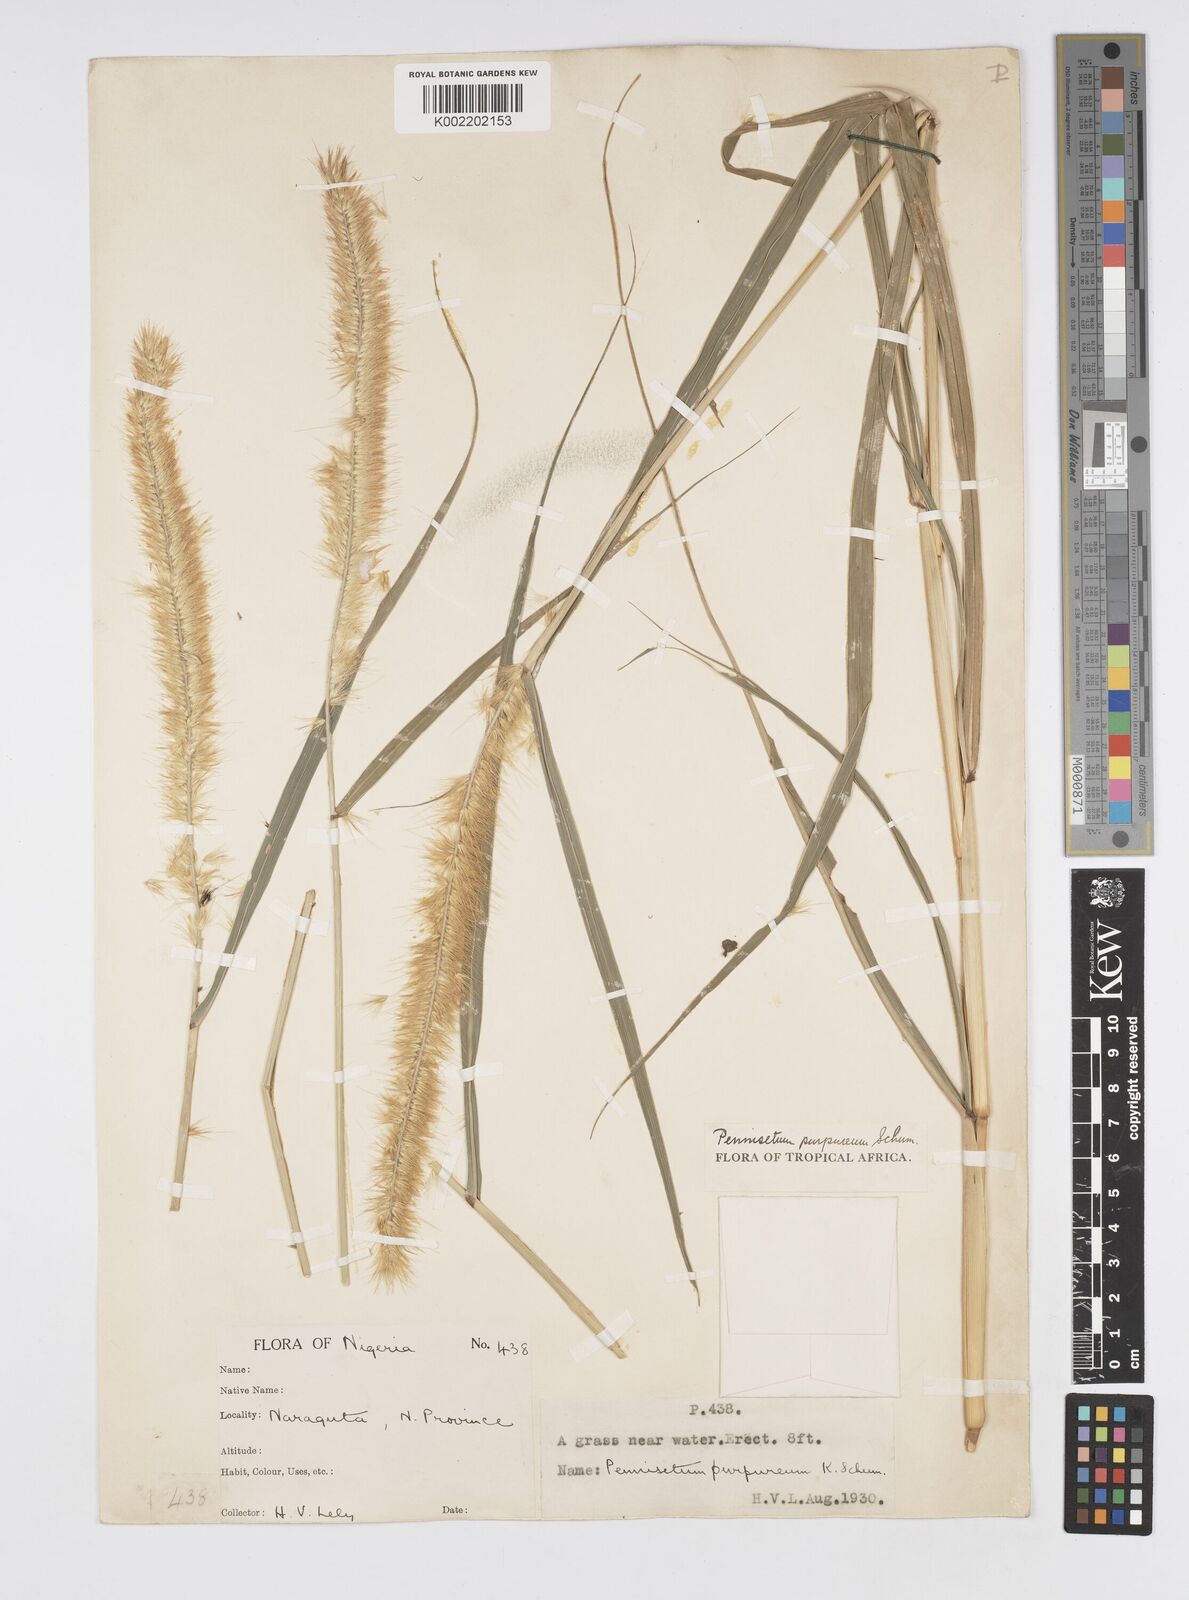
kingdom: Plantae
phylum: Tracheophyta
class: Liliopsida
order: Poales
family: Poaceae
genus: Cenchrus
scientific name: Cenchrus purpureus
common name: Elephant grass
